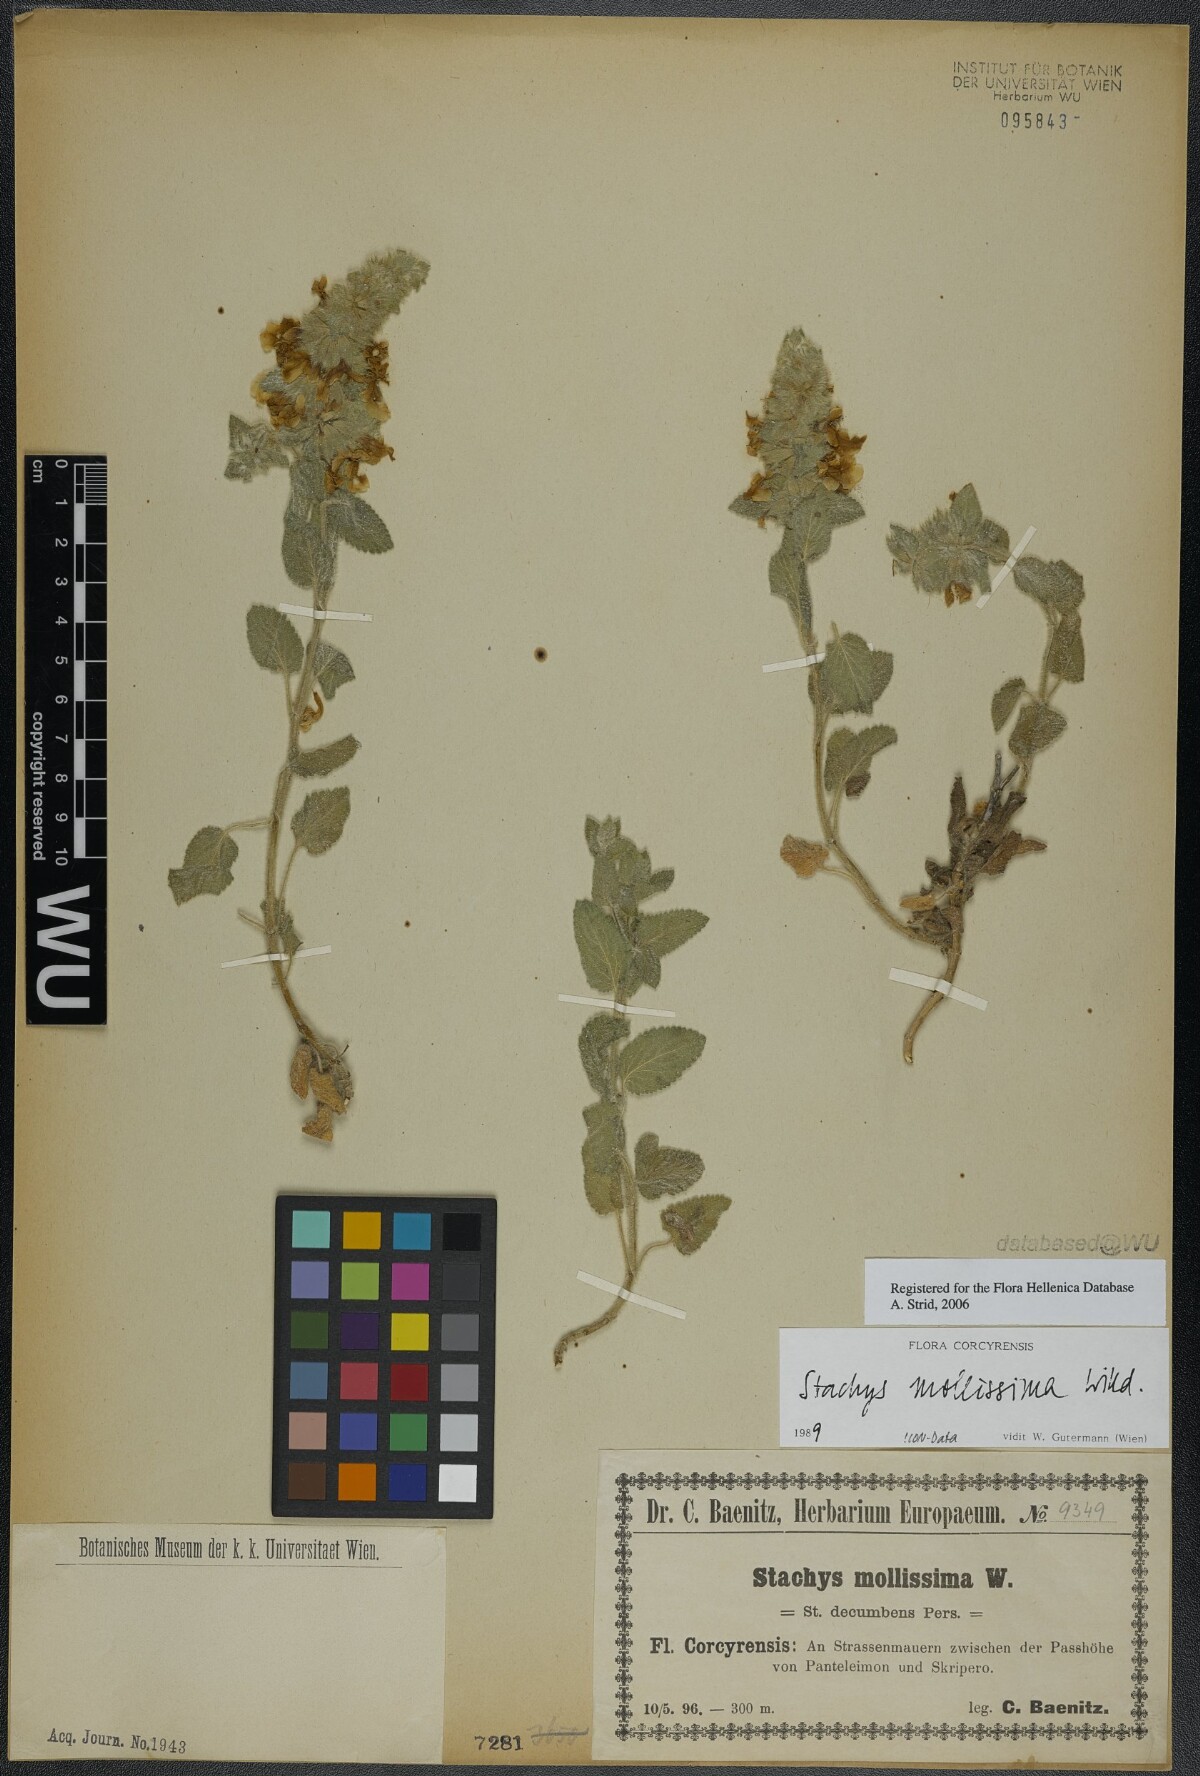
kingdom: Plantae
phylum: Tracheophyta
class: Magnoliopsida
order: Lamiales
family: Lamiaceae
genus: Stachys
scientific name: Stachys mollissima
